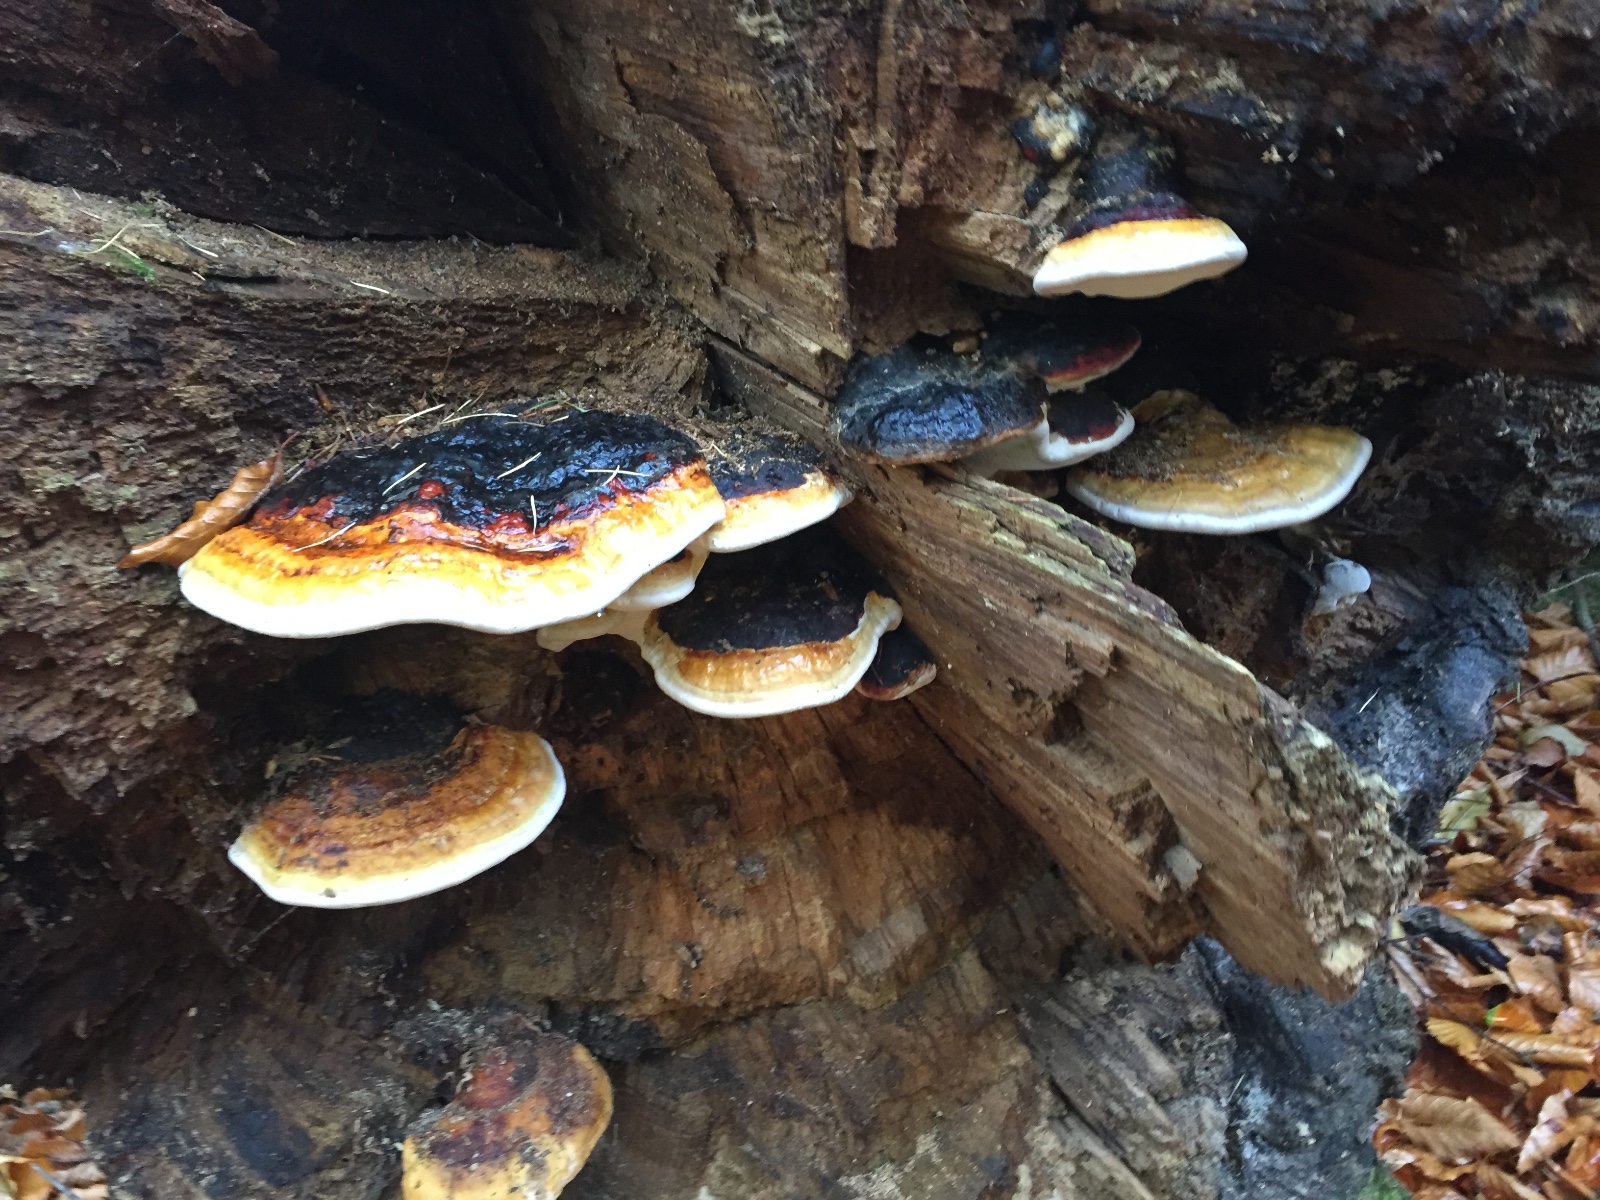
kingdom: Fungi
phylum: Basidiomycota
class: Agaricomycetes
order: Polyporales
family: Fomitopsidaceae
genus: Fomitopsis
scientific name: Fomitopsis pinicola
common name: randbæltet hovporesvamp
